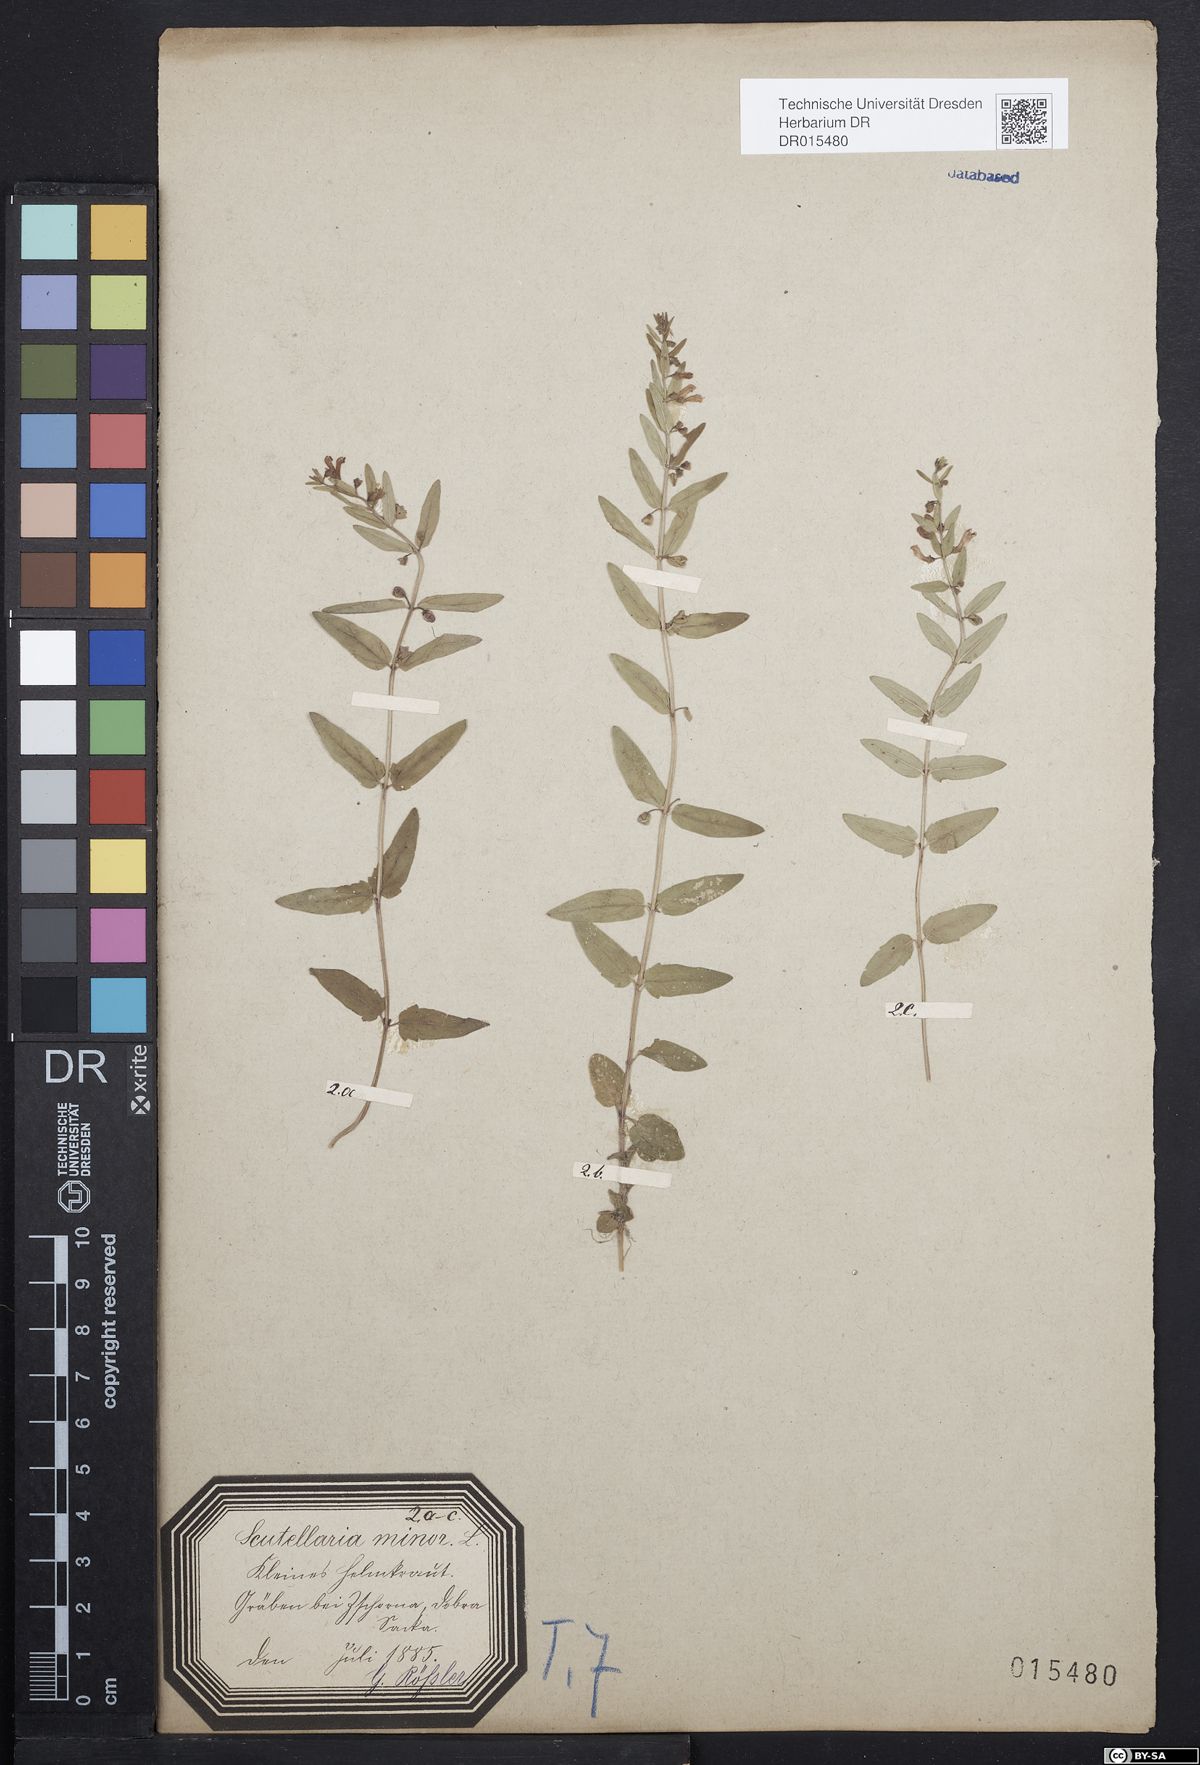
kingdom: Plantae
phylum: Tracheophyta
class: Magnoliopsida
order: Lamiales
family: Lamiaceae
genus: Scutellaria
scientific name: Scutellaria minor
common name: Lesser skullcap
